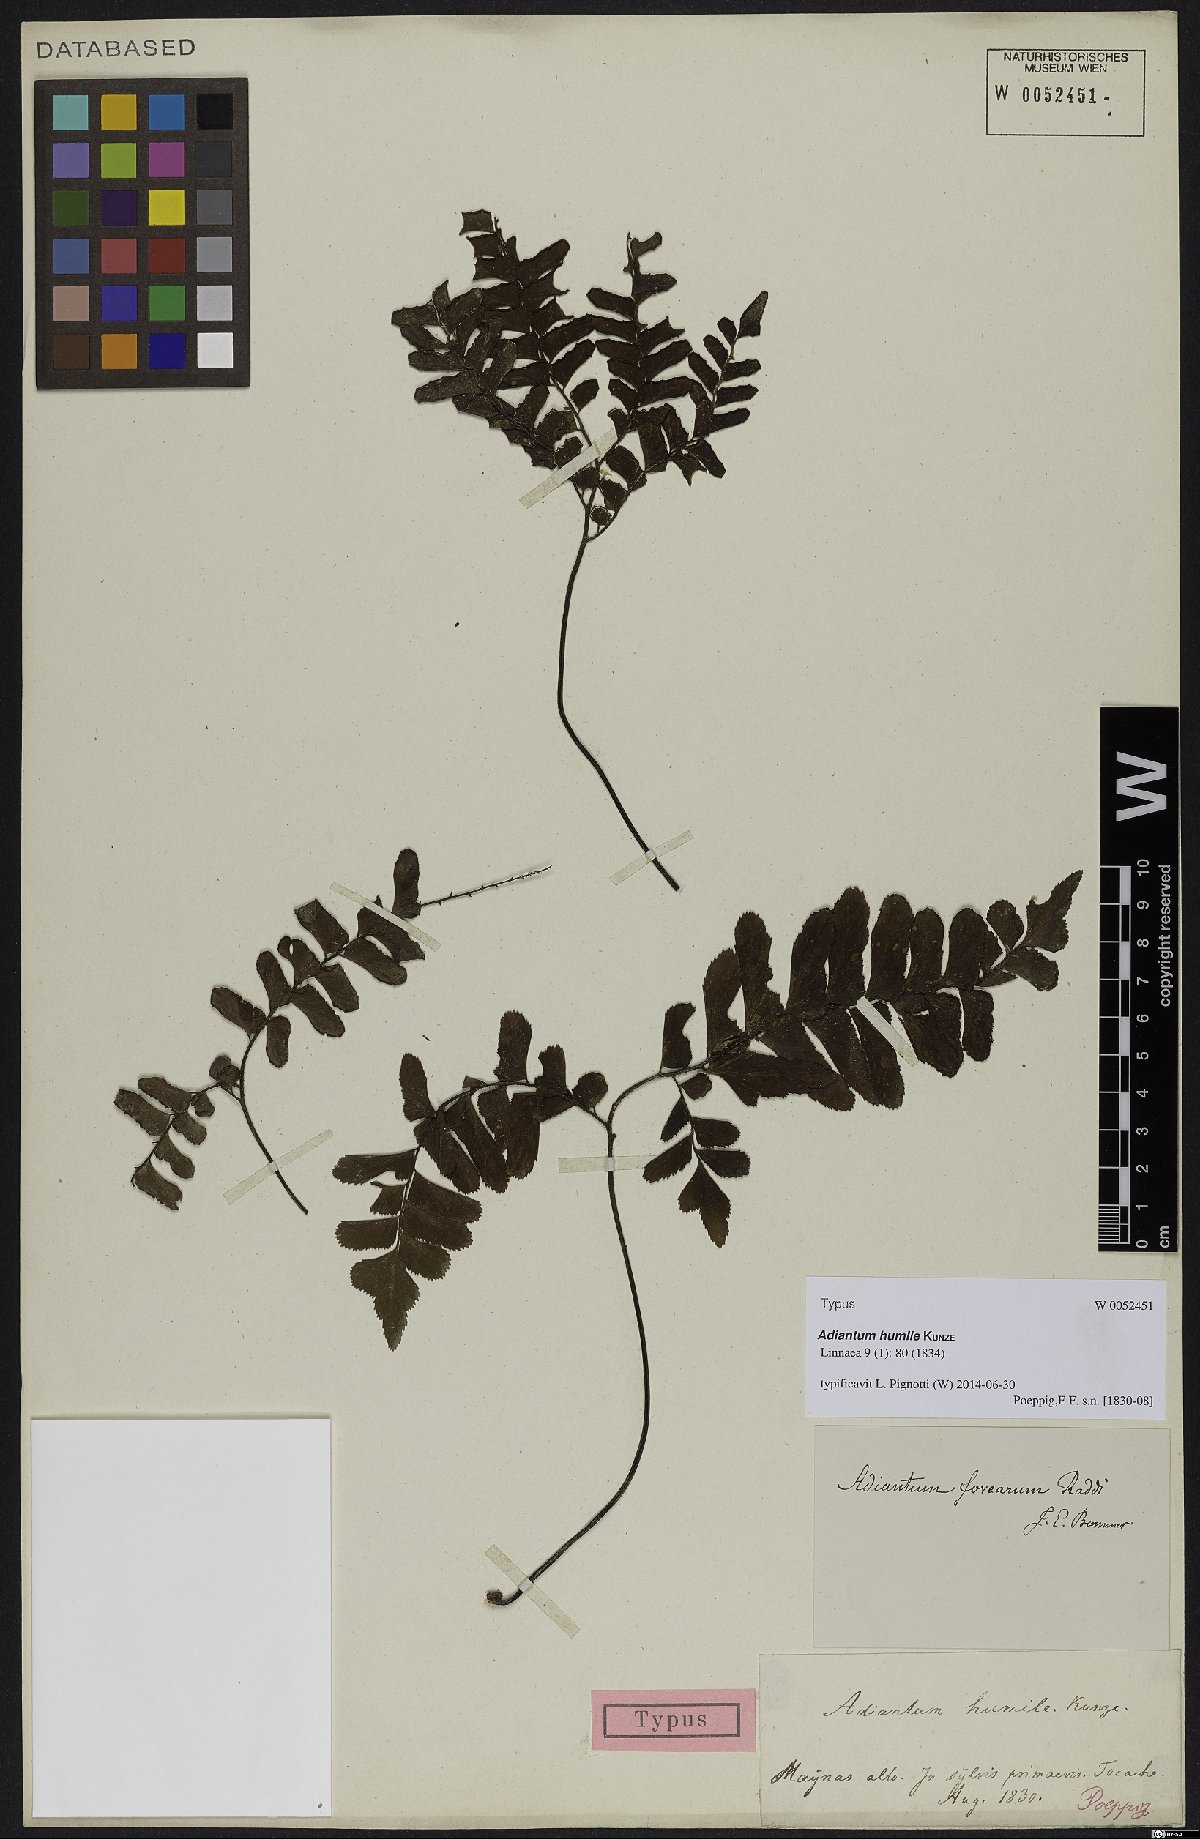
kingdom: Plantae
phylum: Tracheophyta
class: Polypodiopsida
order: Polypodiales
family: Pteridaceae
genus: Adiantum
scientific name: Adiantum humile
